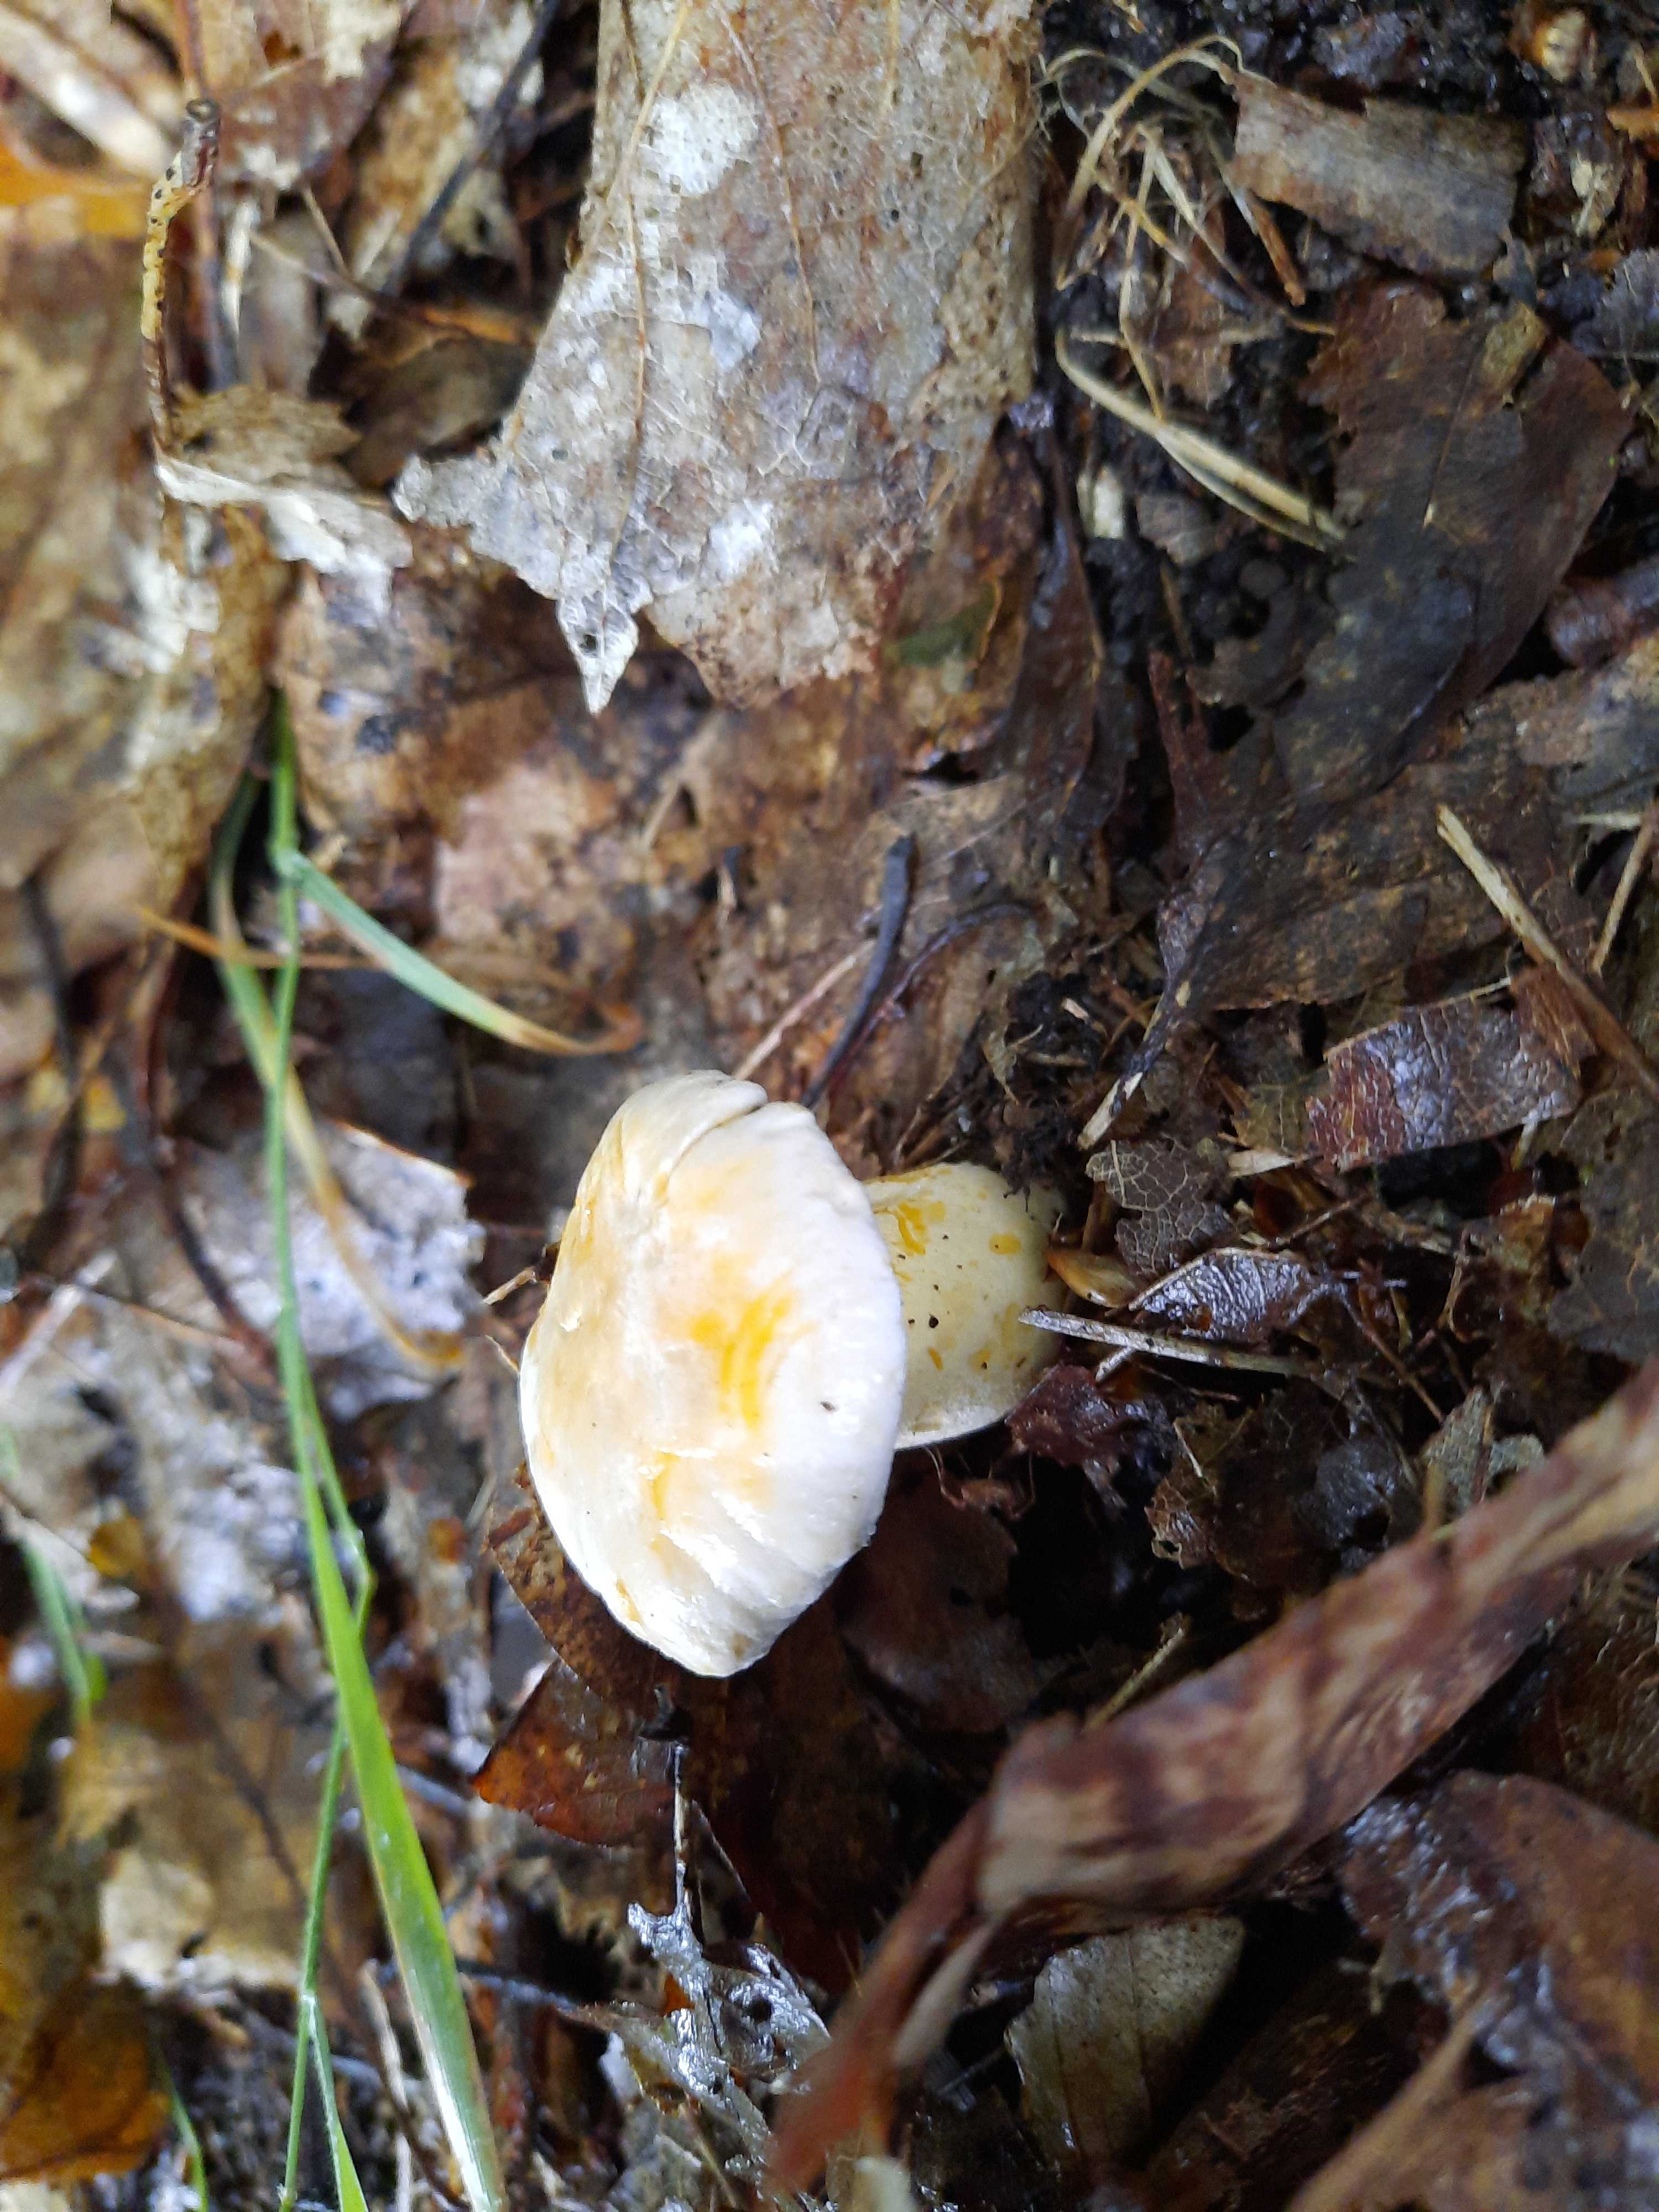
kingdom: Fungi
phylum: Basidiomycota
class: Agaricomycetes
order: Cantharellales
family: Hydnaceae
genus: Cantharellus
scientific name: Cantharellus pallens
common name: bleg kantarel
